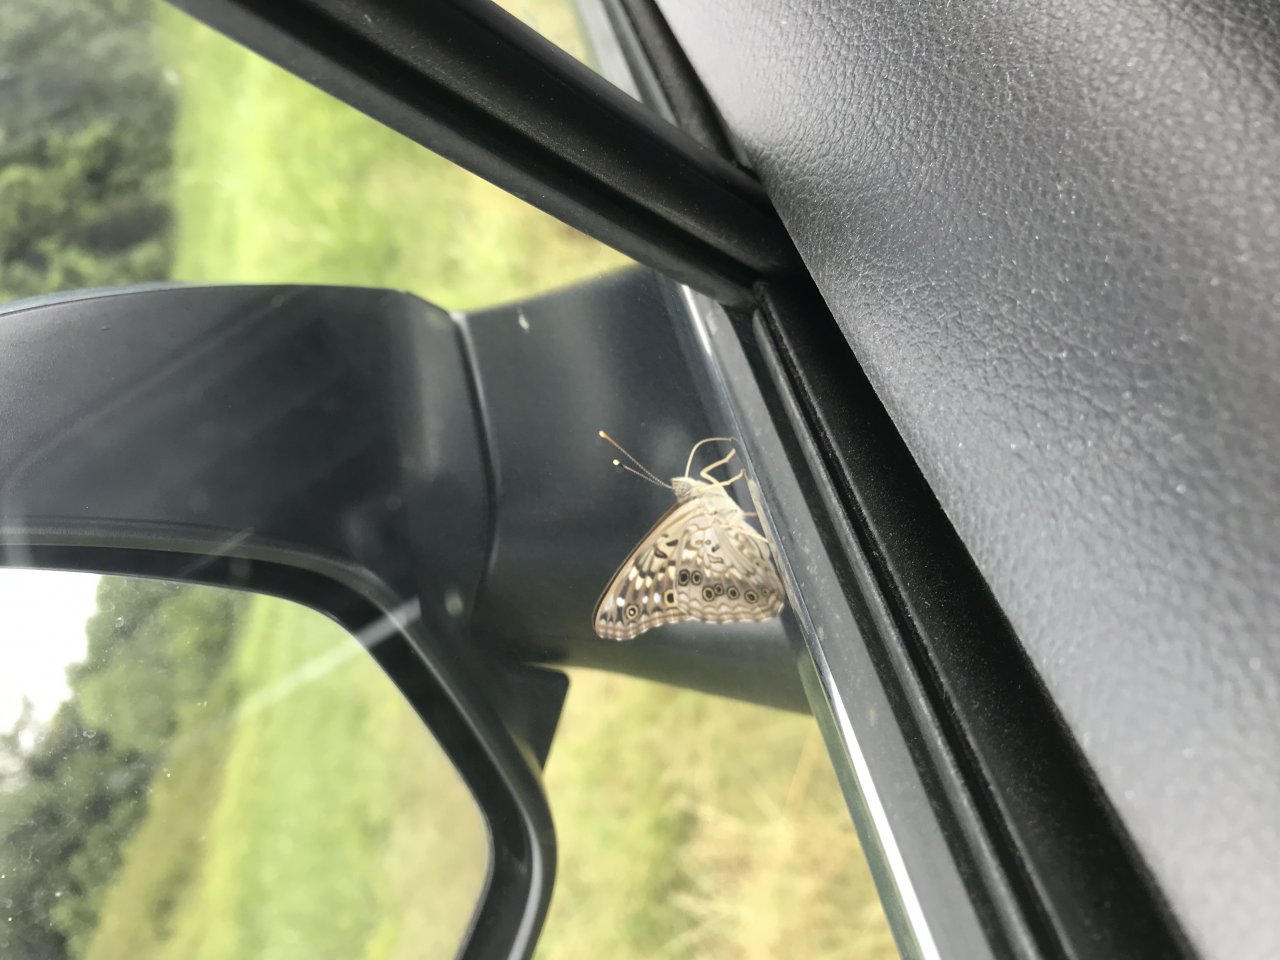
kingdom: Animalia
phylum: Arthropoda
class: Insecta
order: Lepidoptera
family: Nymphalidae
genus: Asterocampa
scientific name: Asterocampa celtis
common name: Hackberry Emperor
